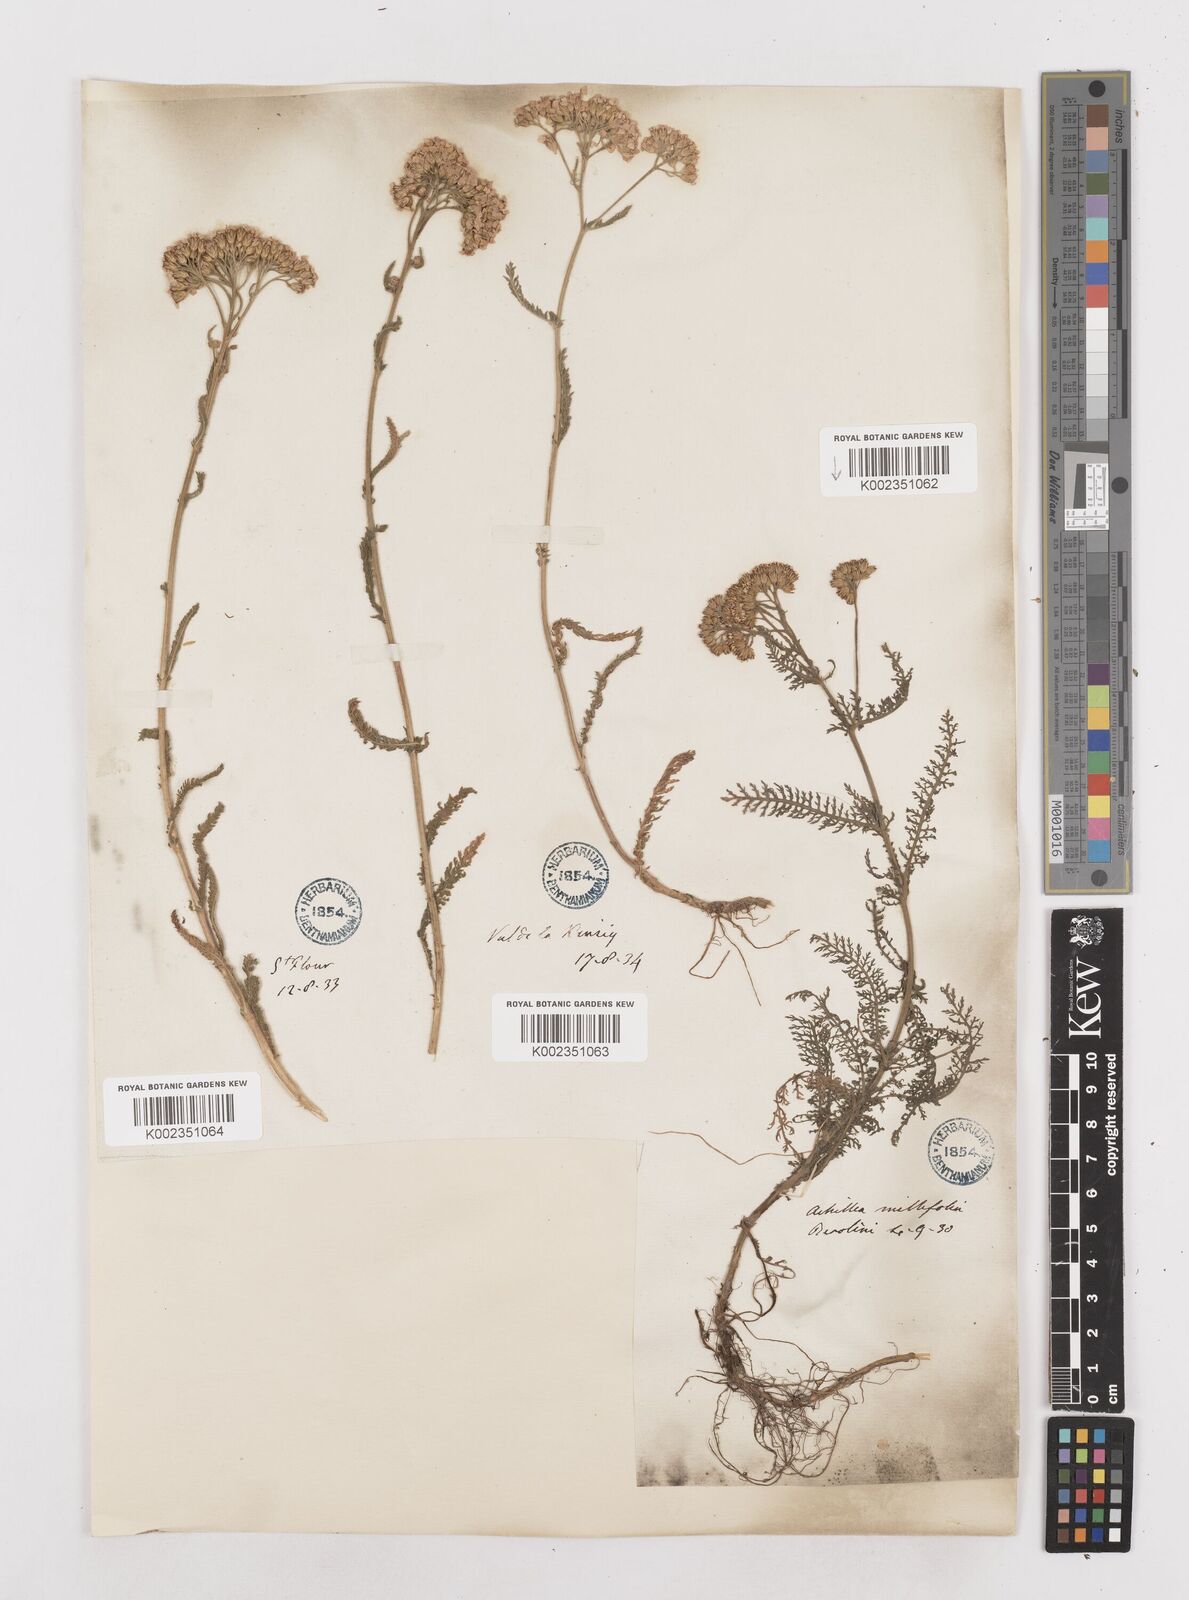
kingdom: Plantae
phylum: Tracheophyta
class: Magnoliopsida
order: Asterales
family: Asteraceae
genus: Achillea
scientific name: Achillea millefolium
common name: Yarrow
